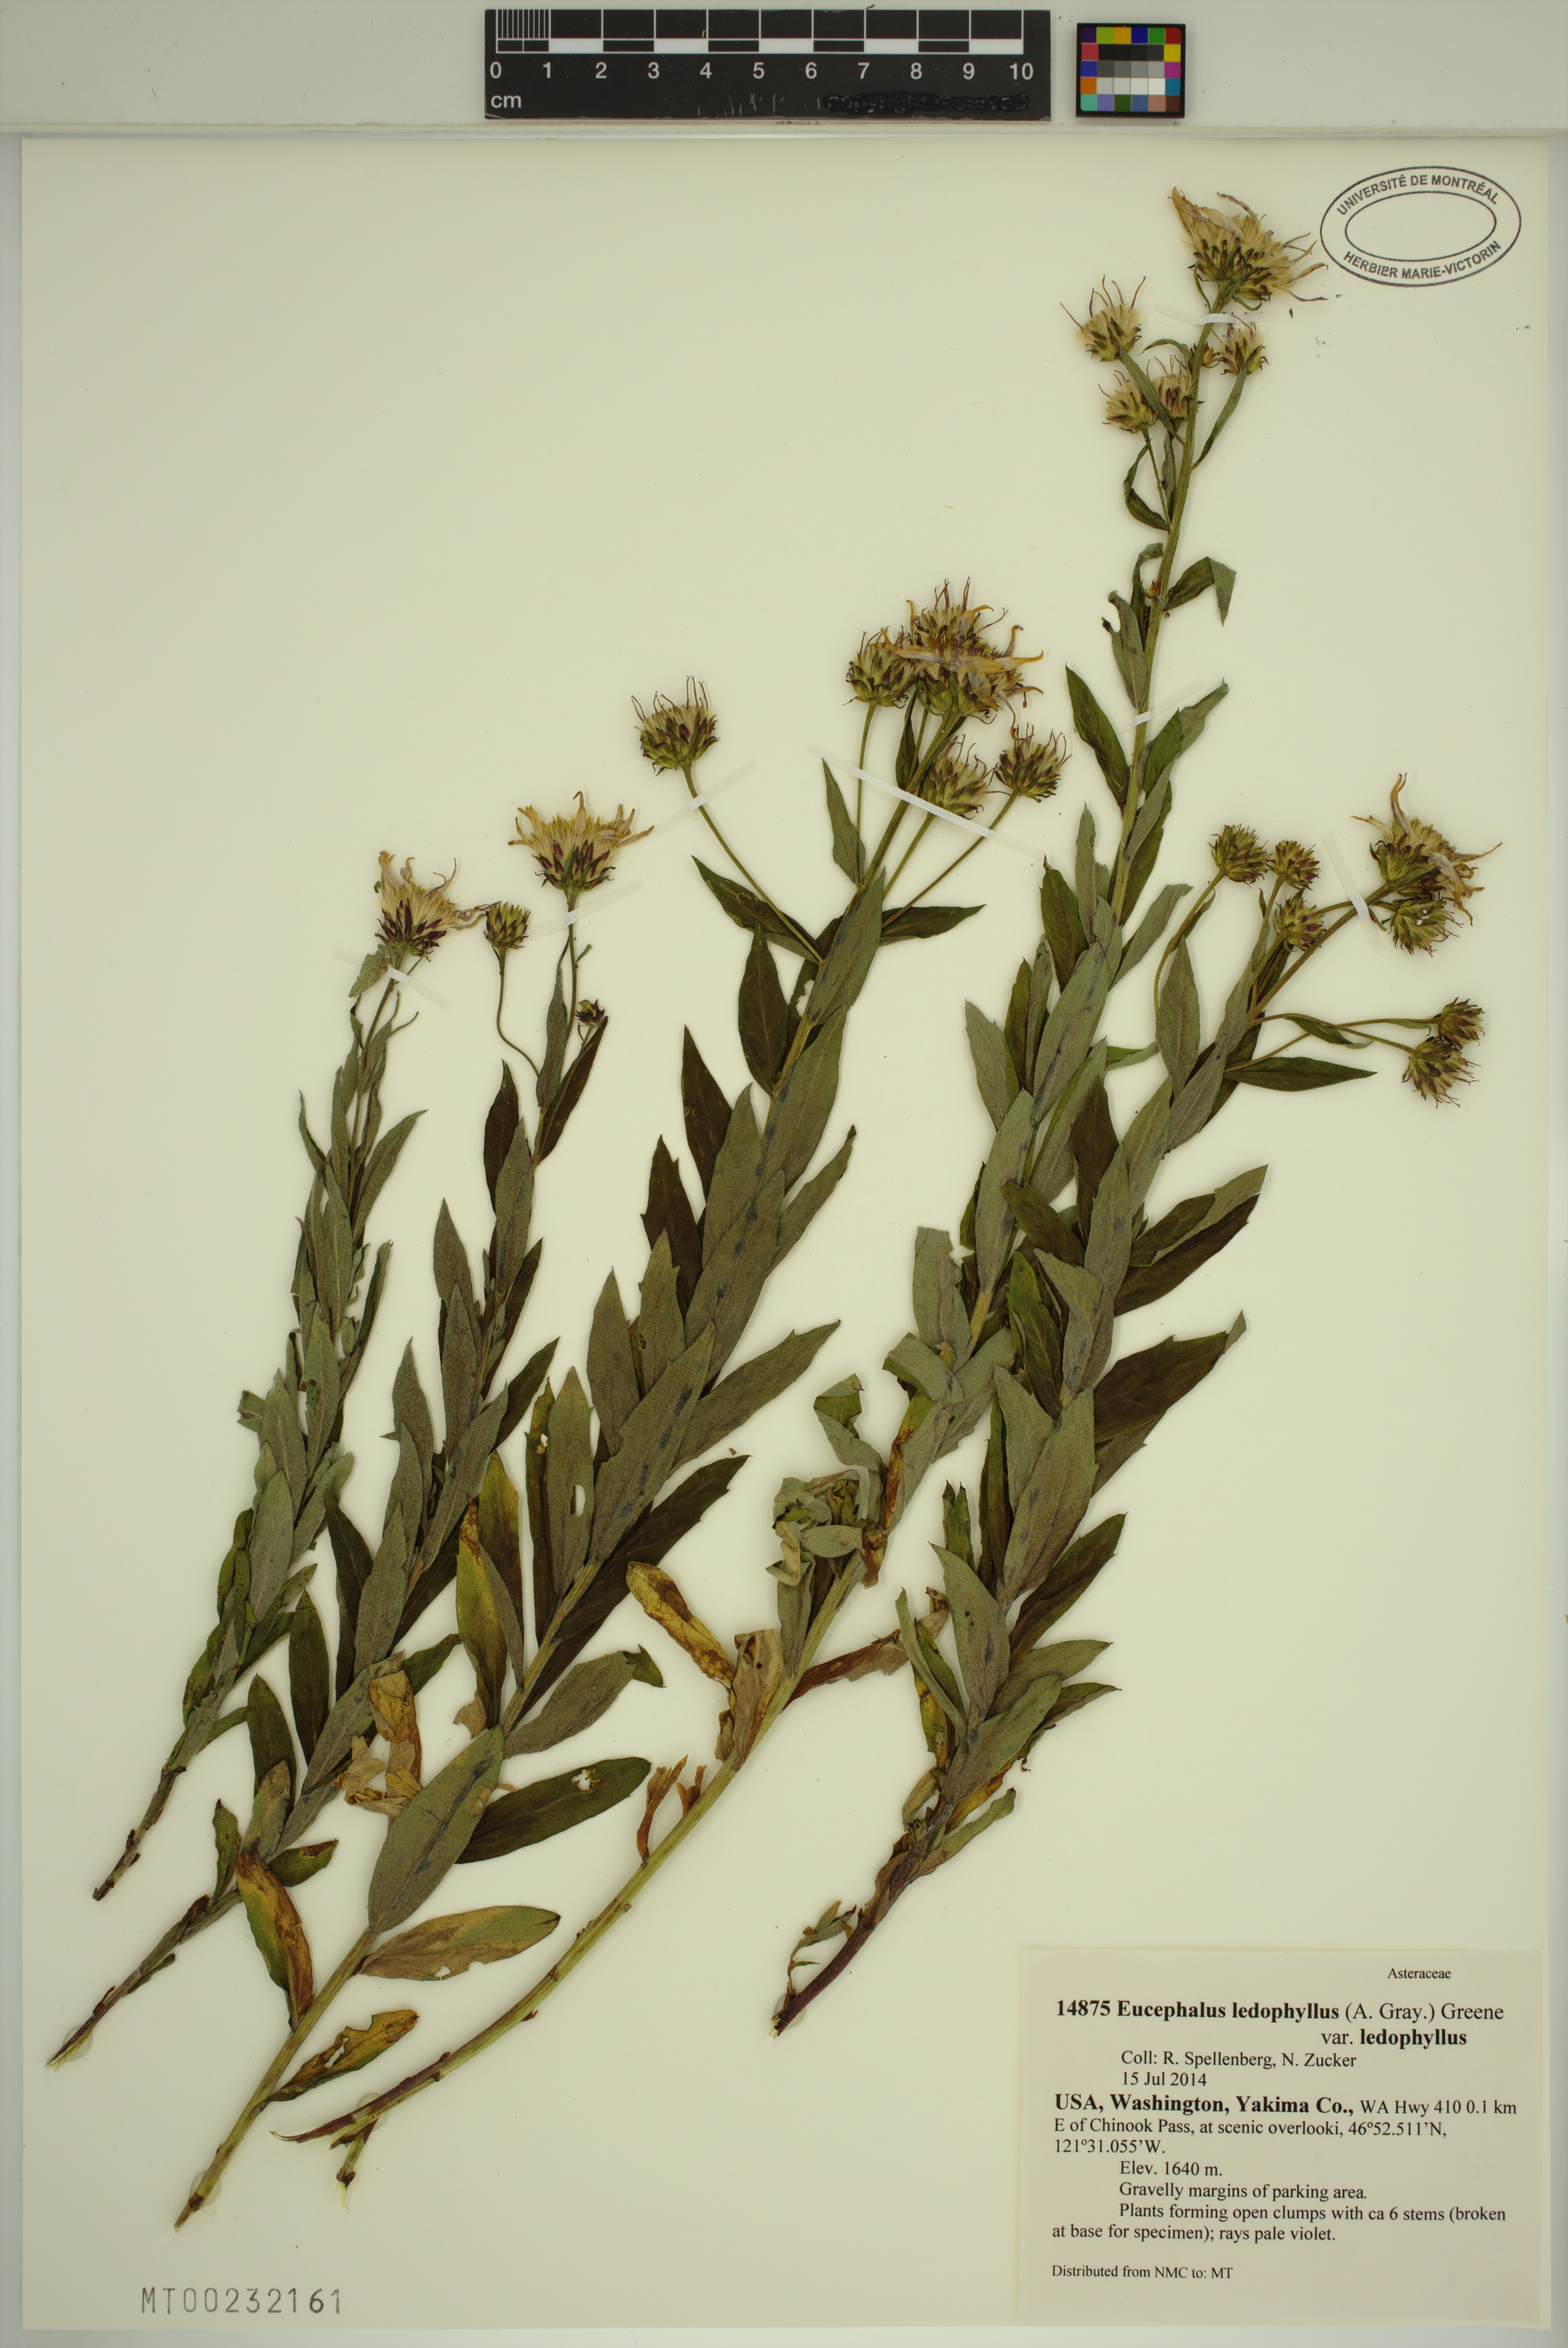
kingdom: Plantae
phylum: Tracheophyta
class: Magnoliopsida
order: Asterales
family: Asteraceae
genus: Eucephalus
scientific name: Eucephalus ledophyllus
